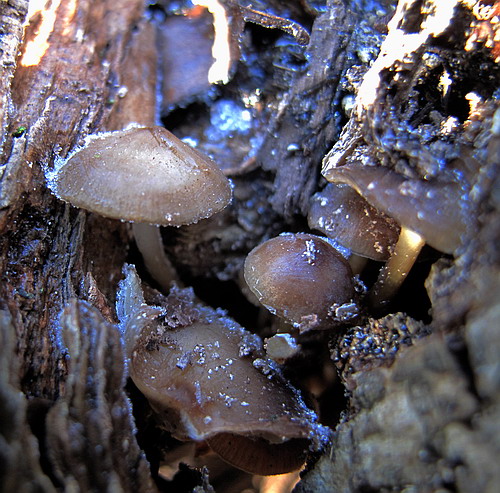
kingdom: Fungi
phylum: Basidiomycota
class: Agaricomycetes
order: Agaricales
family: Mycenaceae
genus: Mycena
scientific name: Mycena tintinnabulum
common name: vinter-huesvamp
